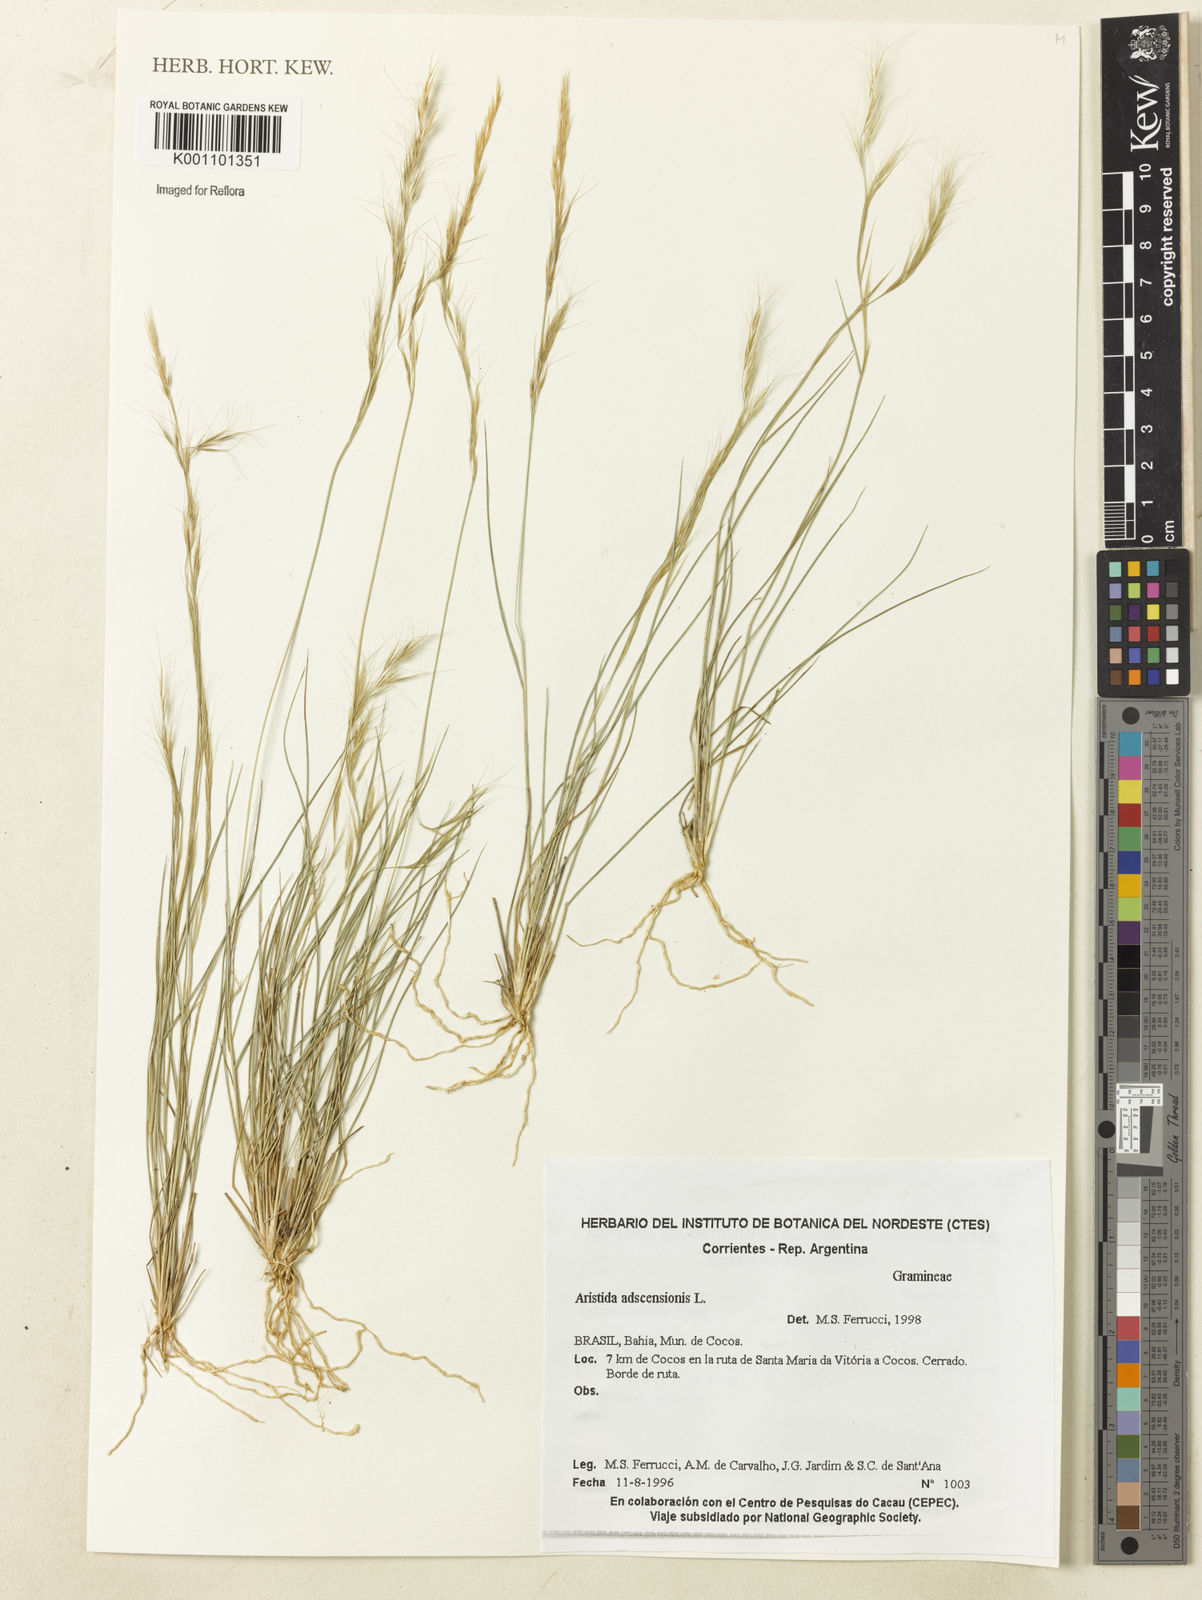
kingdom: Plantae
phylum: Tracheophyta
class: Liliopsida
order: Poales
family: Poaceae
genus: Aristida
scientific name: Aristida adscensionis
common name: Sixweeks threeawn
